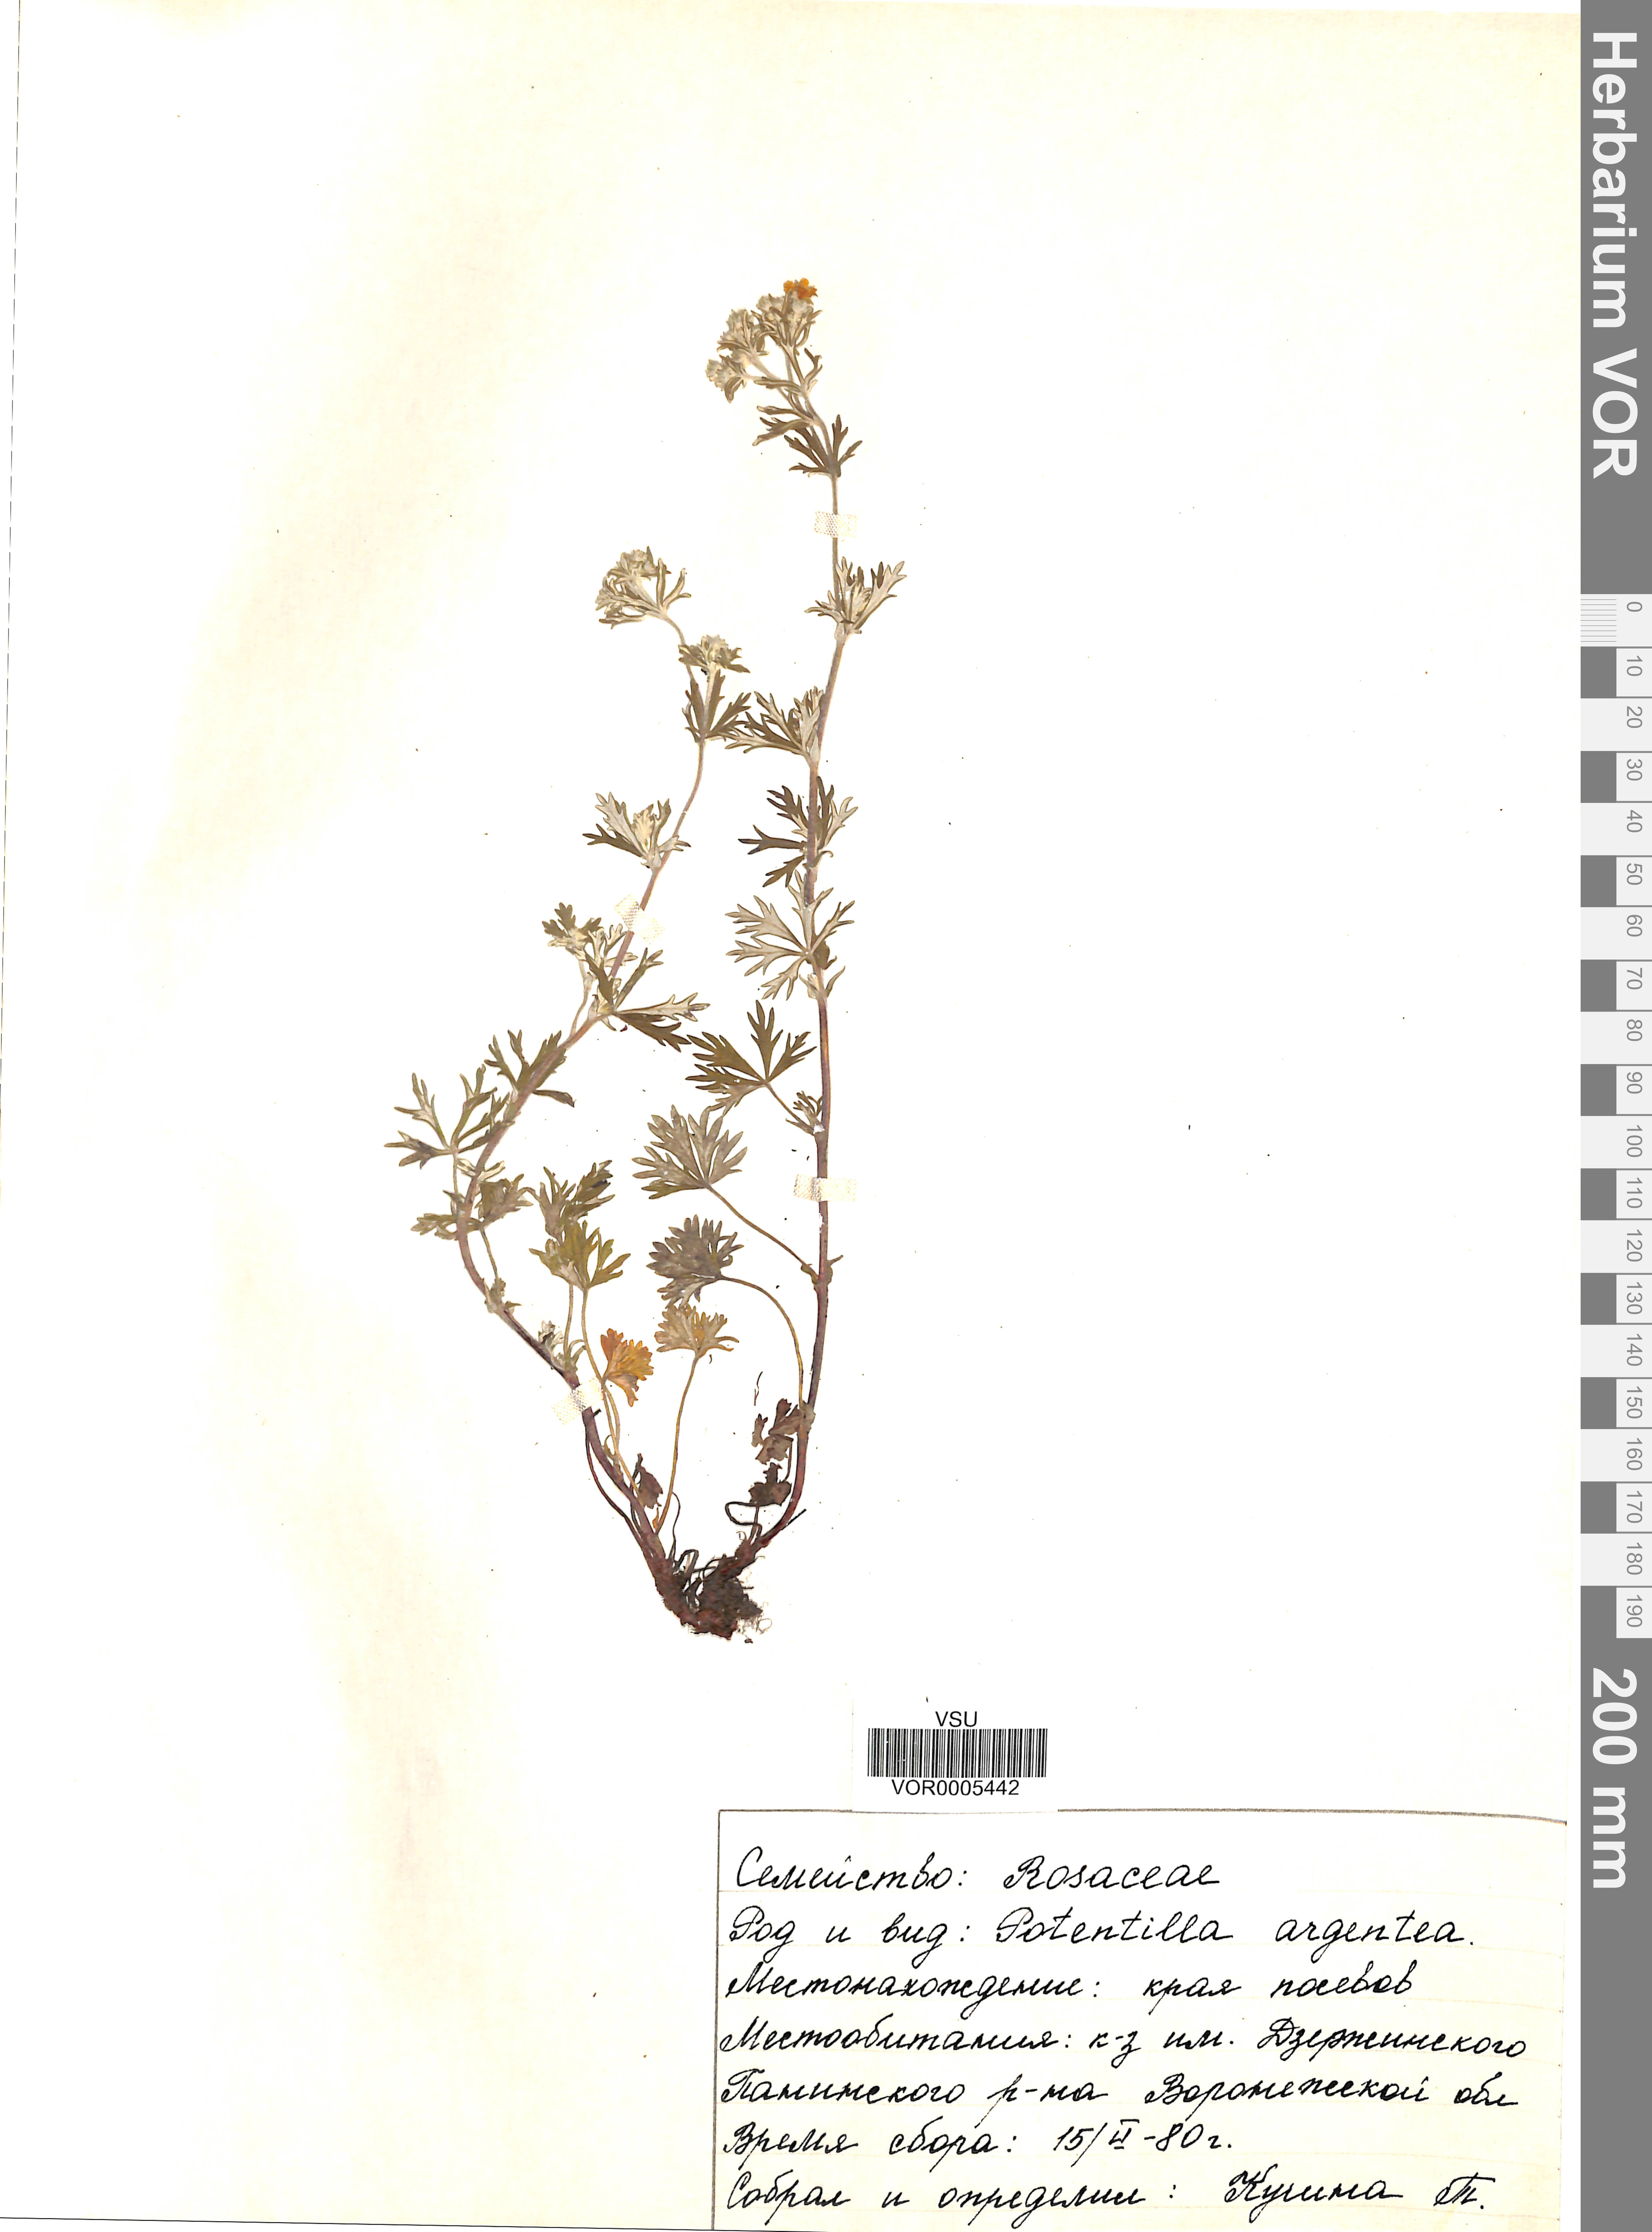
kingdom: Plantae
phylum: Tracheophyta
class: Magnoliopsida
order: Rosales
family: Rosaceae
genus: Potentilla
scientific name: Potentilla argentea
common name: Hoary cinquefoil
